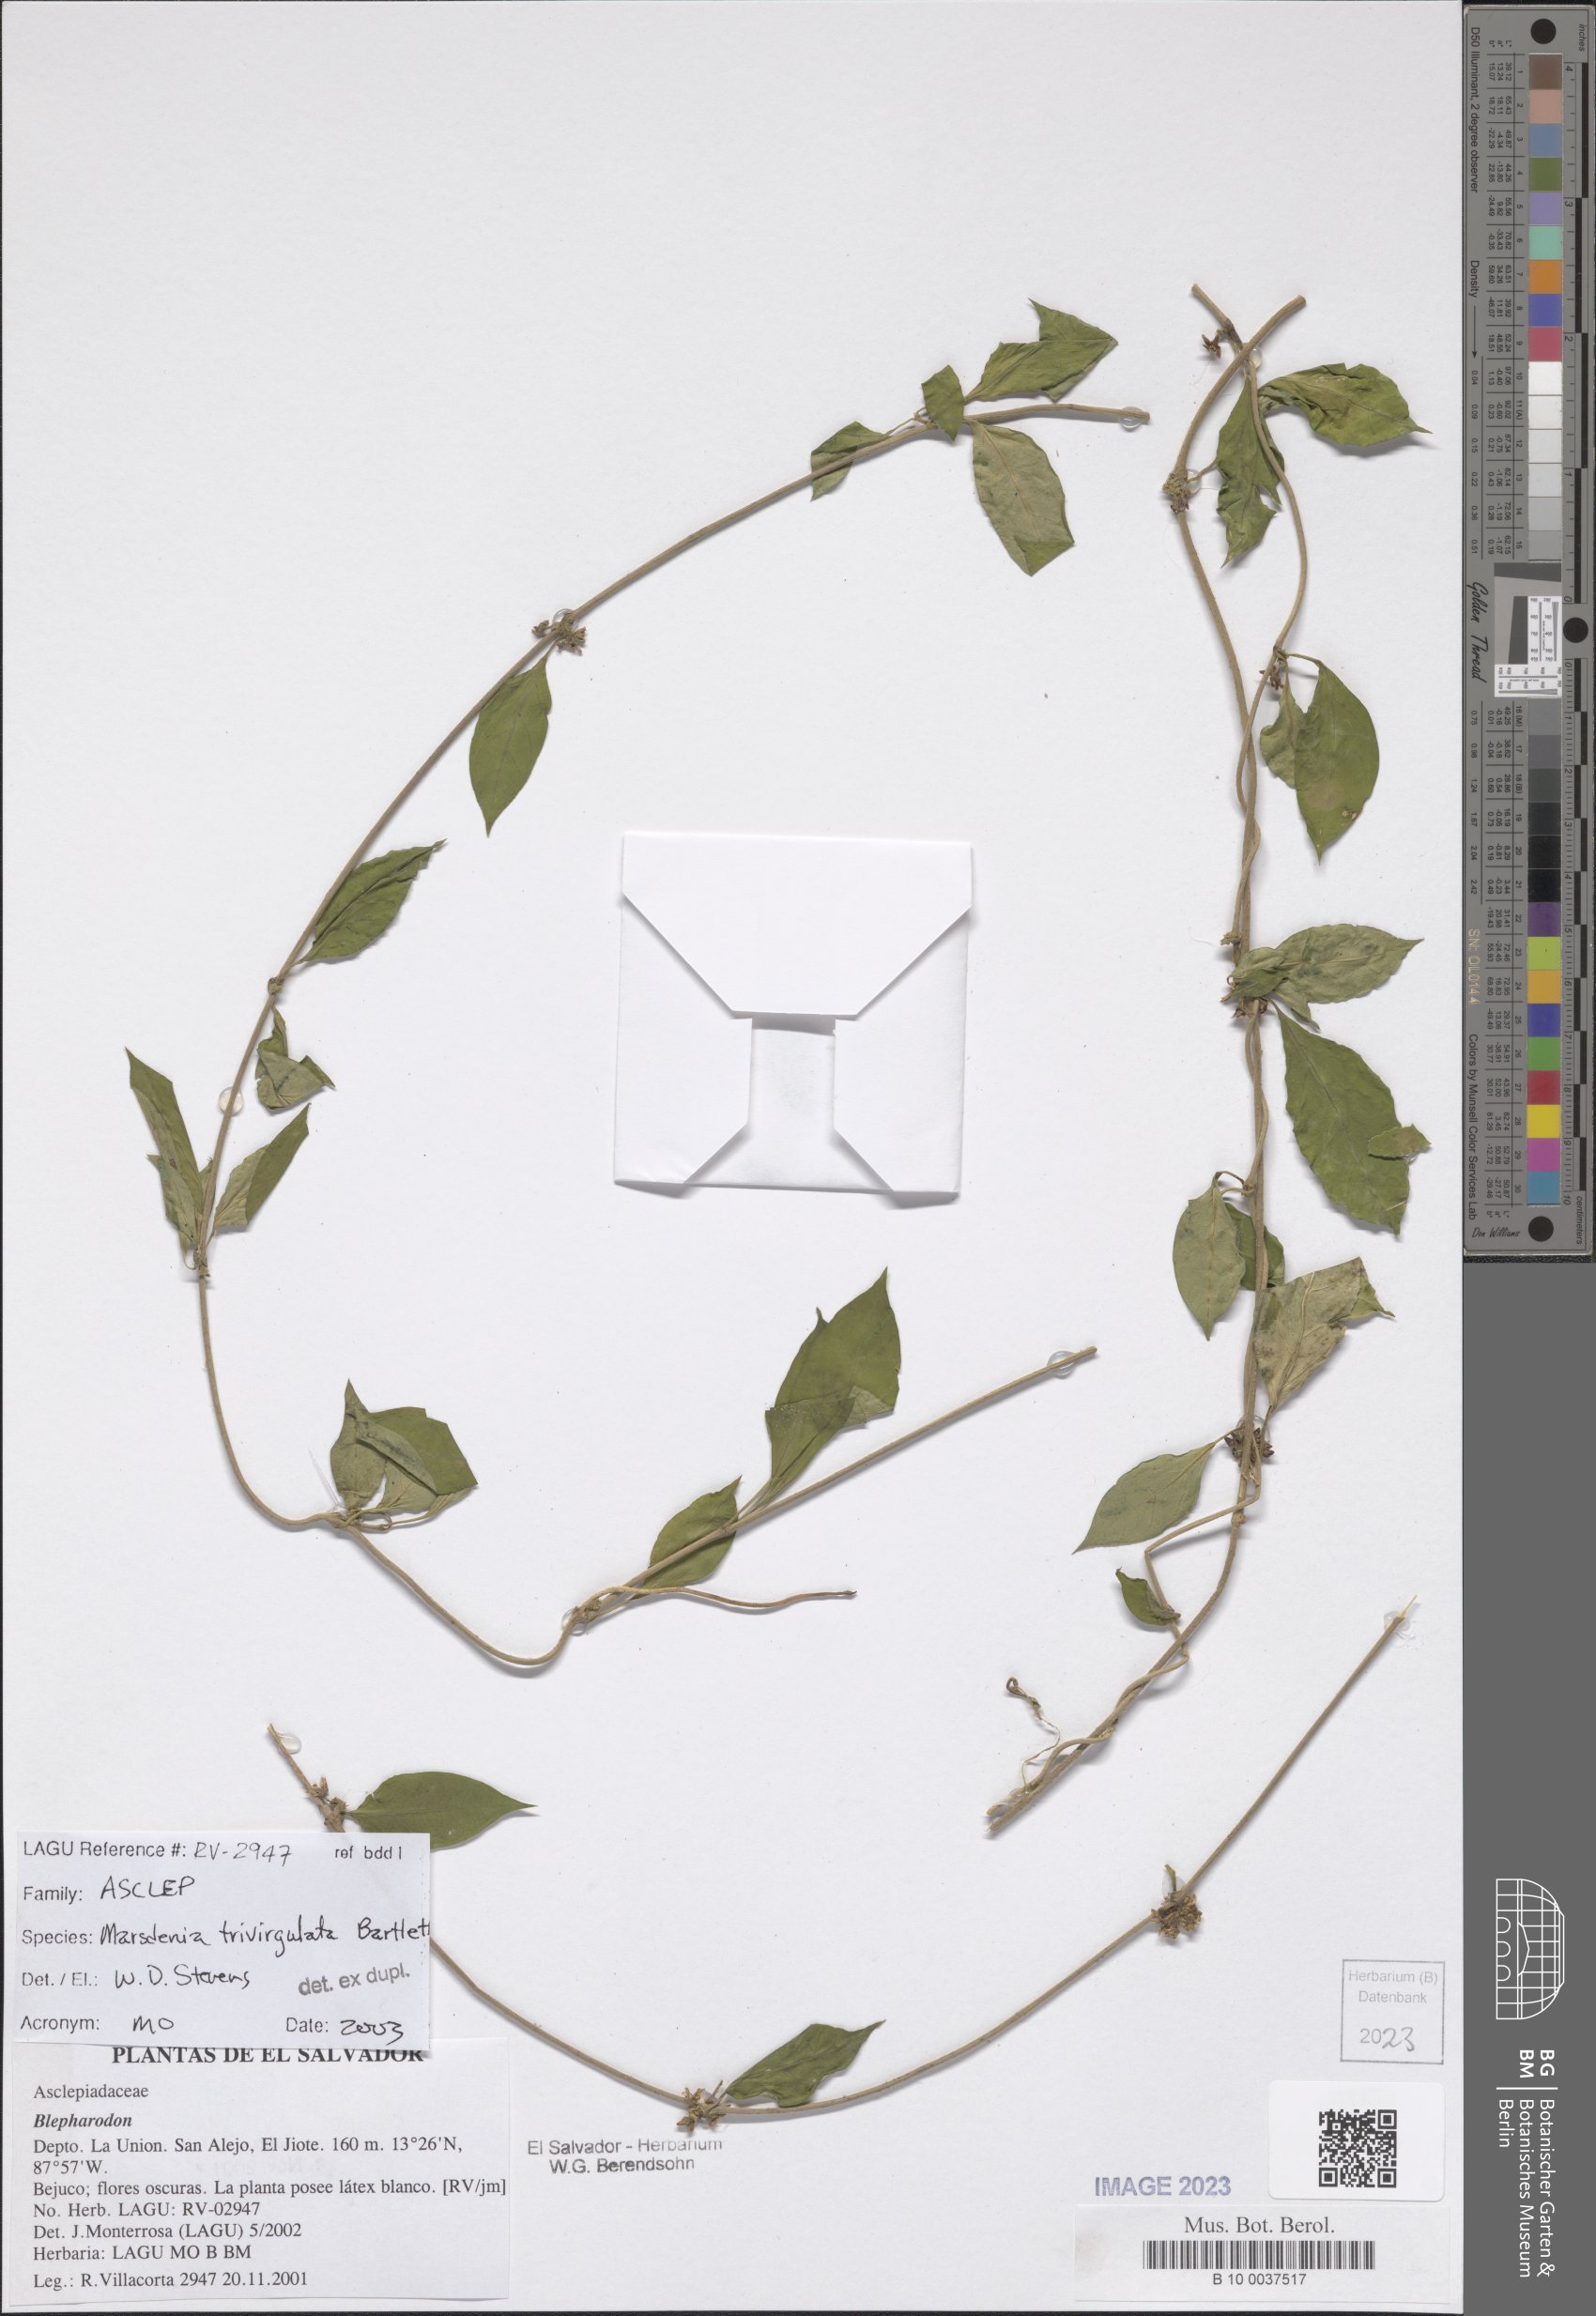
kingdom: Plantae
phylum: Tracheophyta
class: Magnoliopsida
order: Gentianales
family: Apocynaceae
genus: Ruehssia
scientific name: Ruehssia trivirgulata
